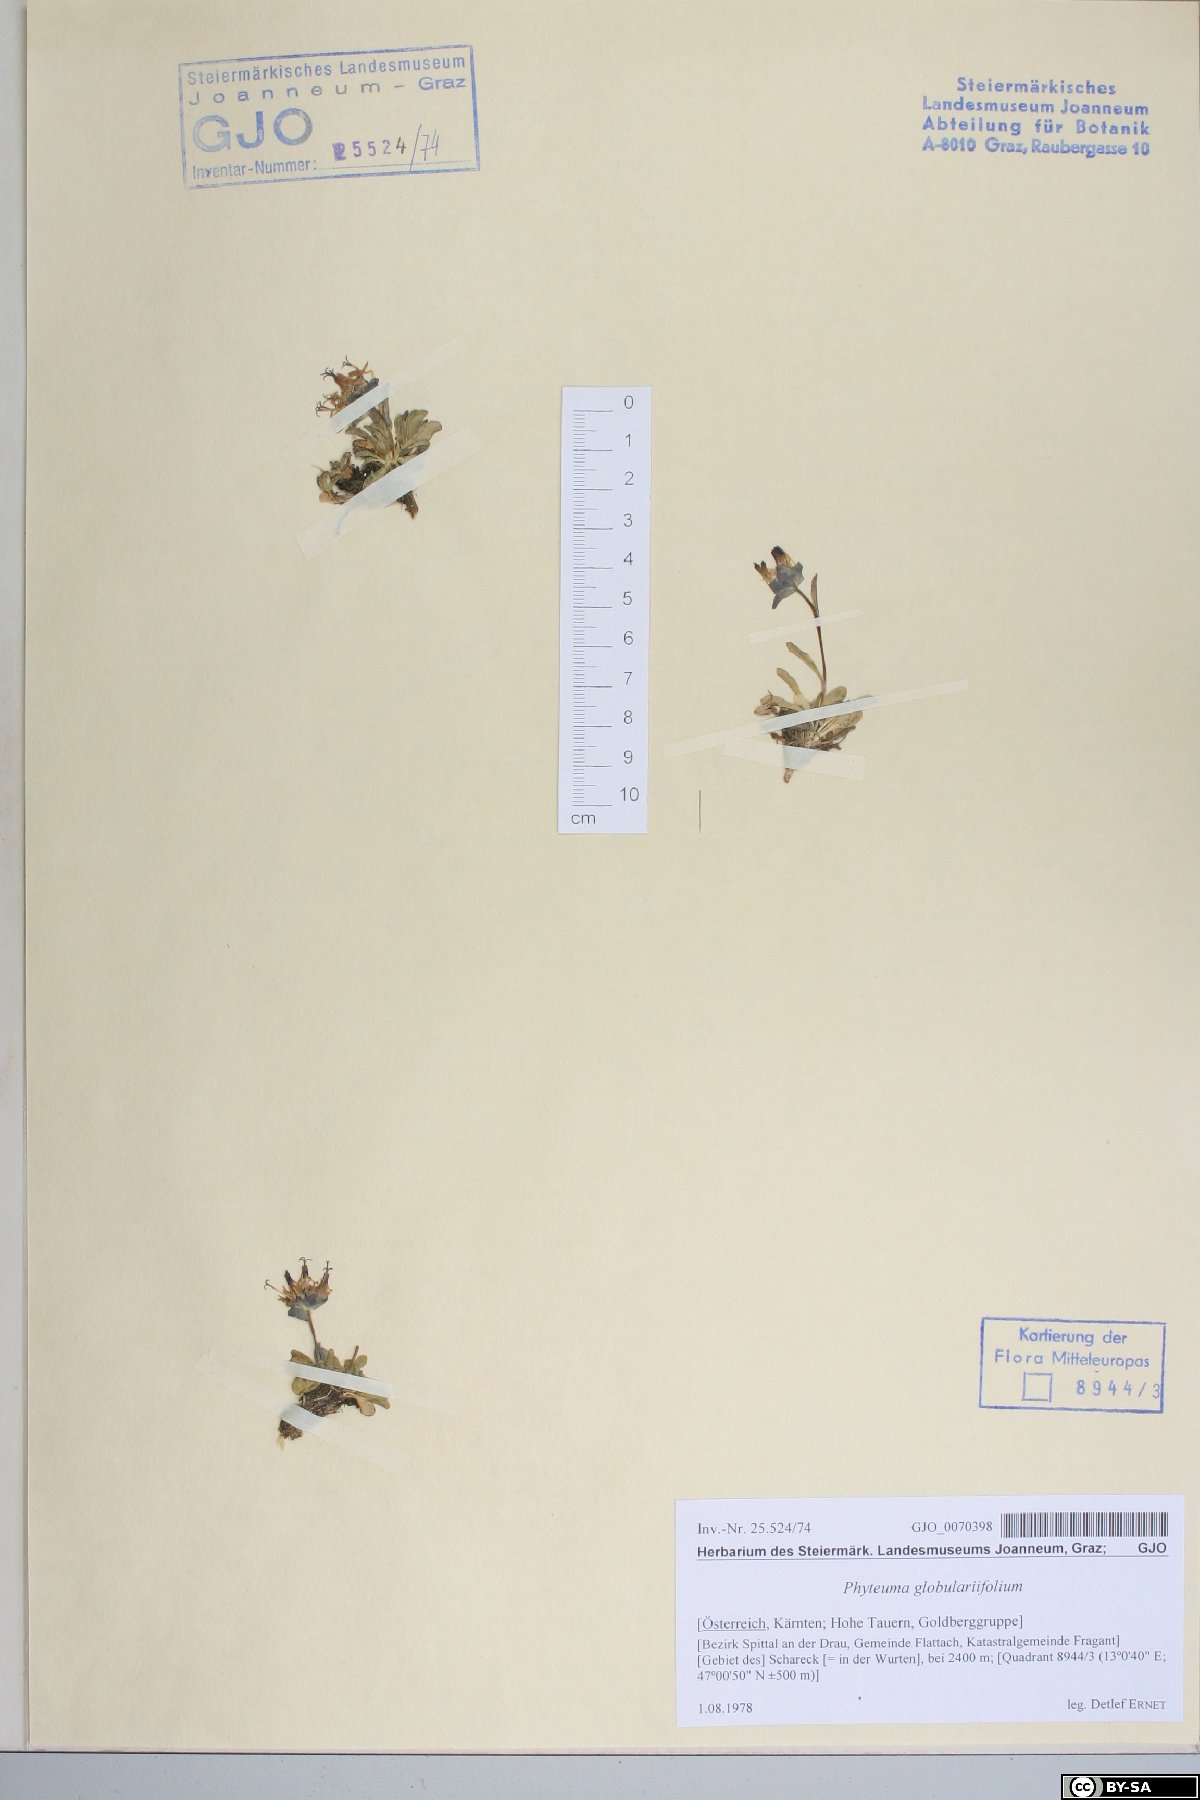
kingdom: Plantae
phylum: Tracheophyta
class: Magnoliopsida
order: Asterales
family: Campanulaceae
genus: Phyteuma
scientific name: Phyteuma globulariifolium
